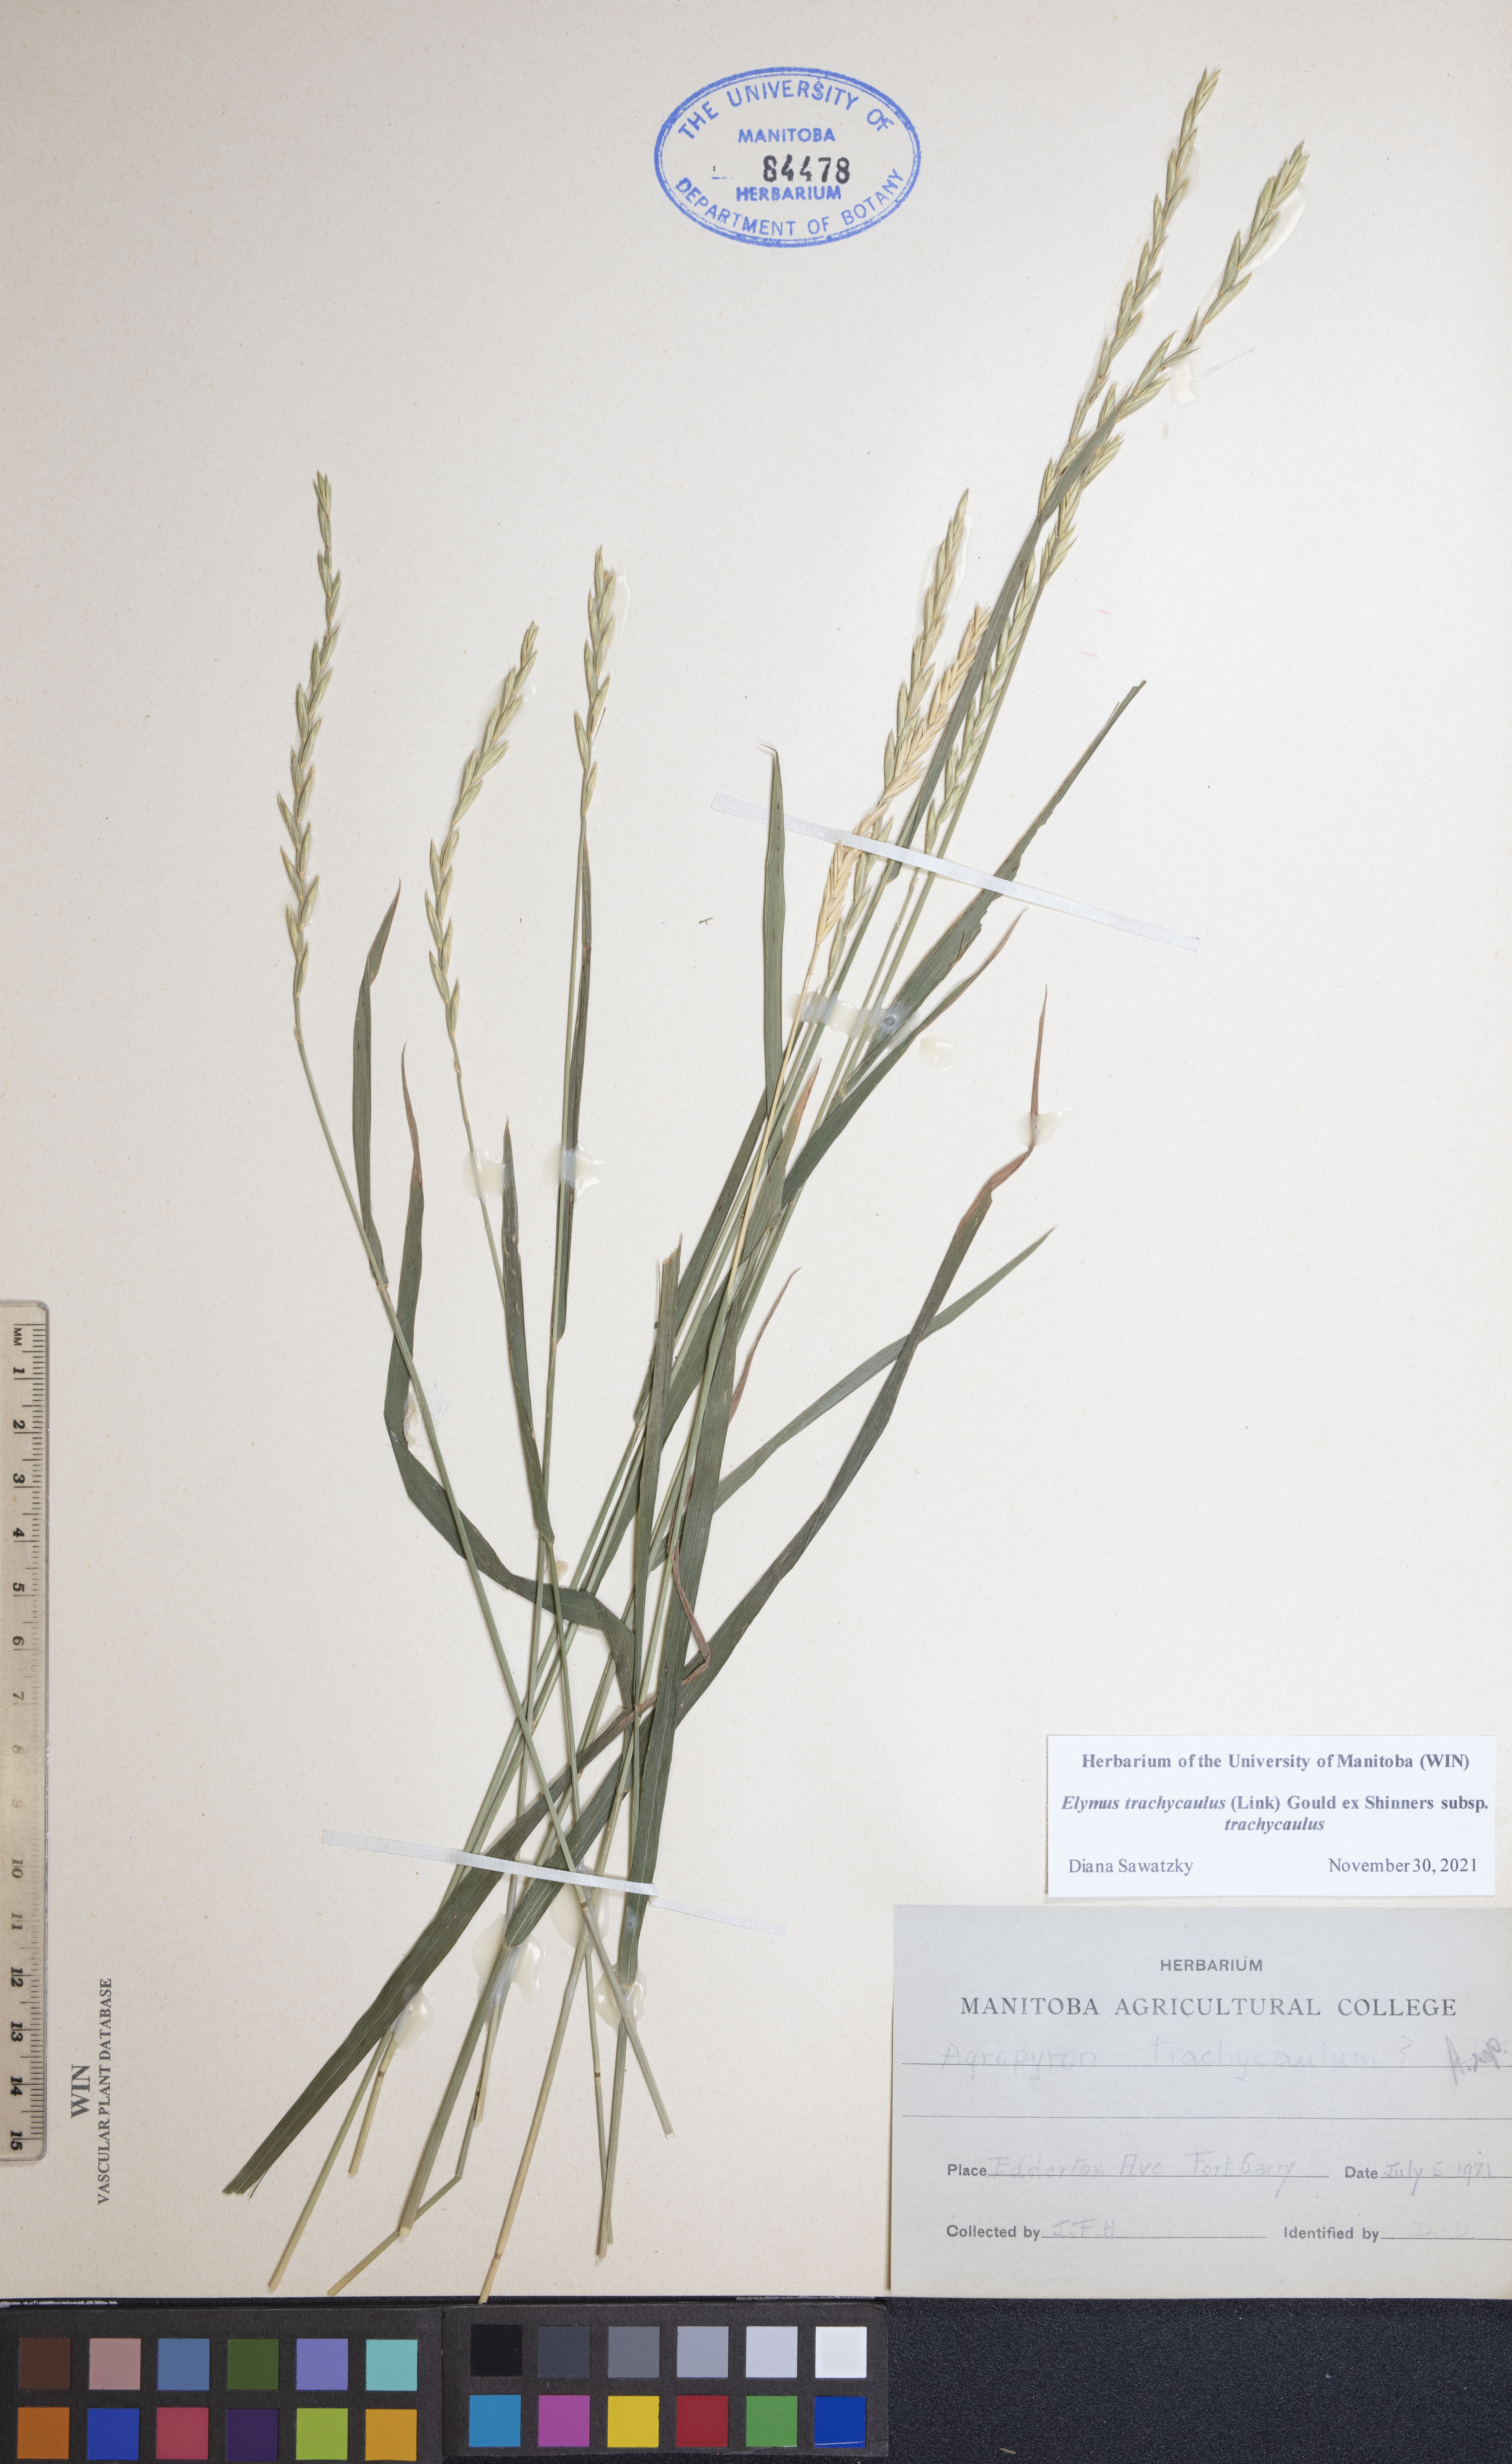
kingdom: Plantae
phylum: Tracheophyta
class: Liliopsida
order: Poales
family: Poaceae
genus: Elymus
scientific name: Elymus violaceus
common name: Arctic wheatgrass
